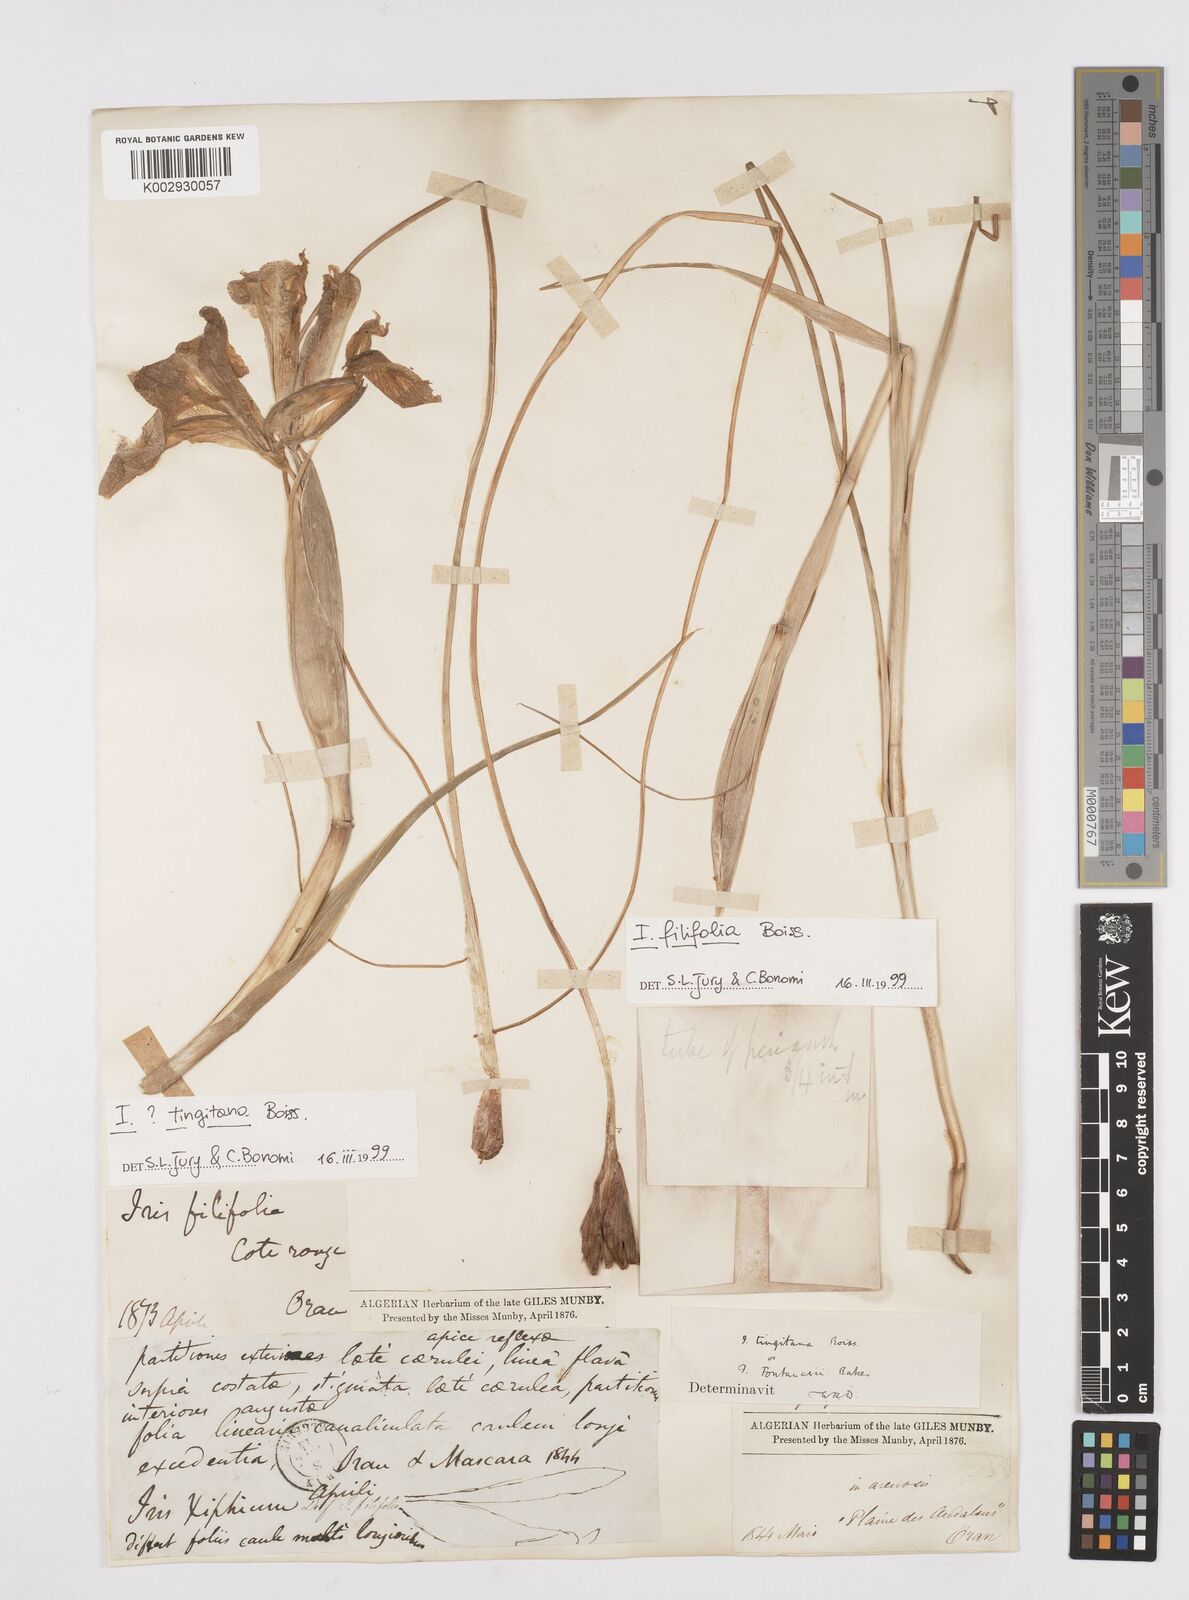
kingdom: Plantae
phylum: Tracheophyta
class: Liliopsida
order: Asparagales
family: Iridaceae
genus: Iris
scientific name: Iris filifolia
